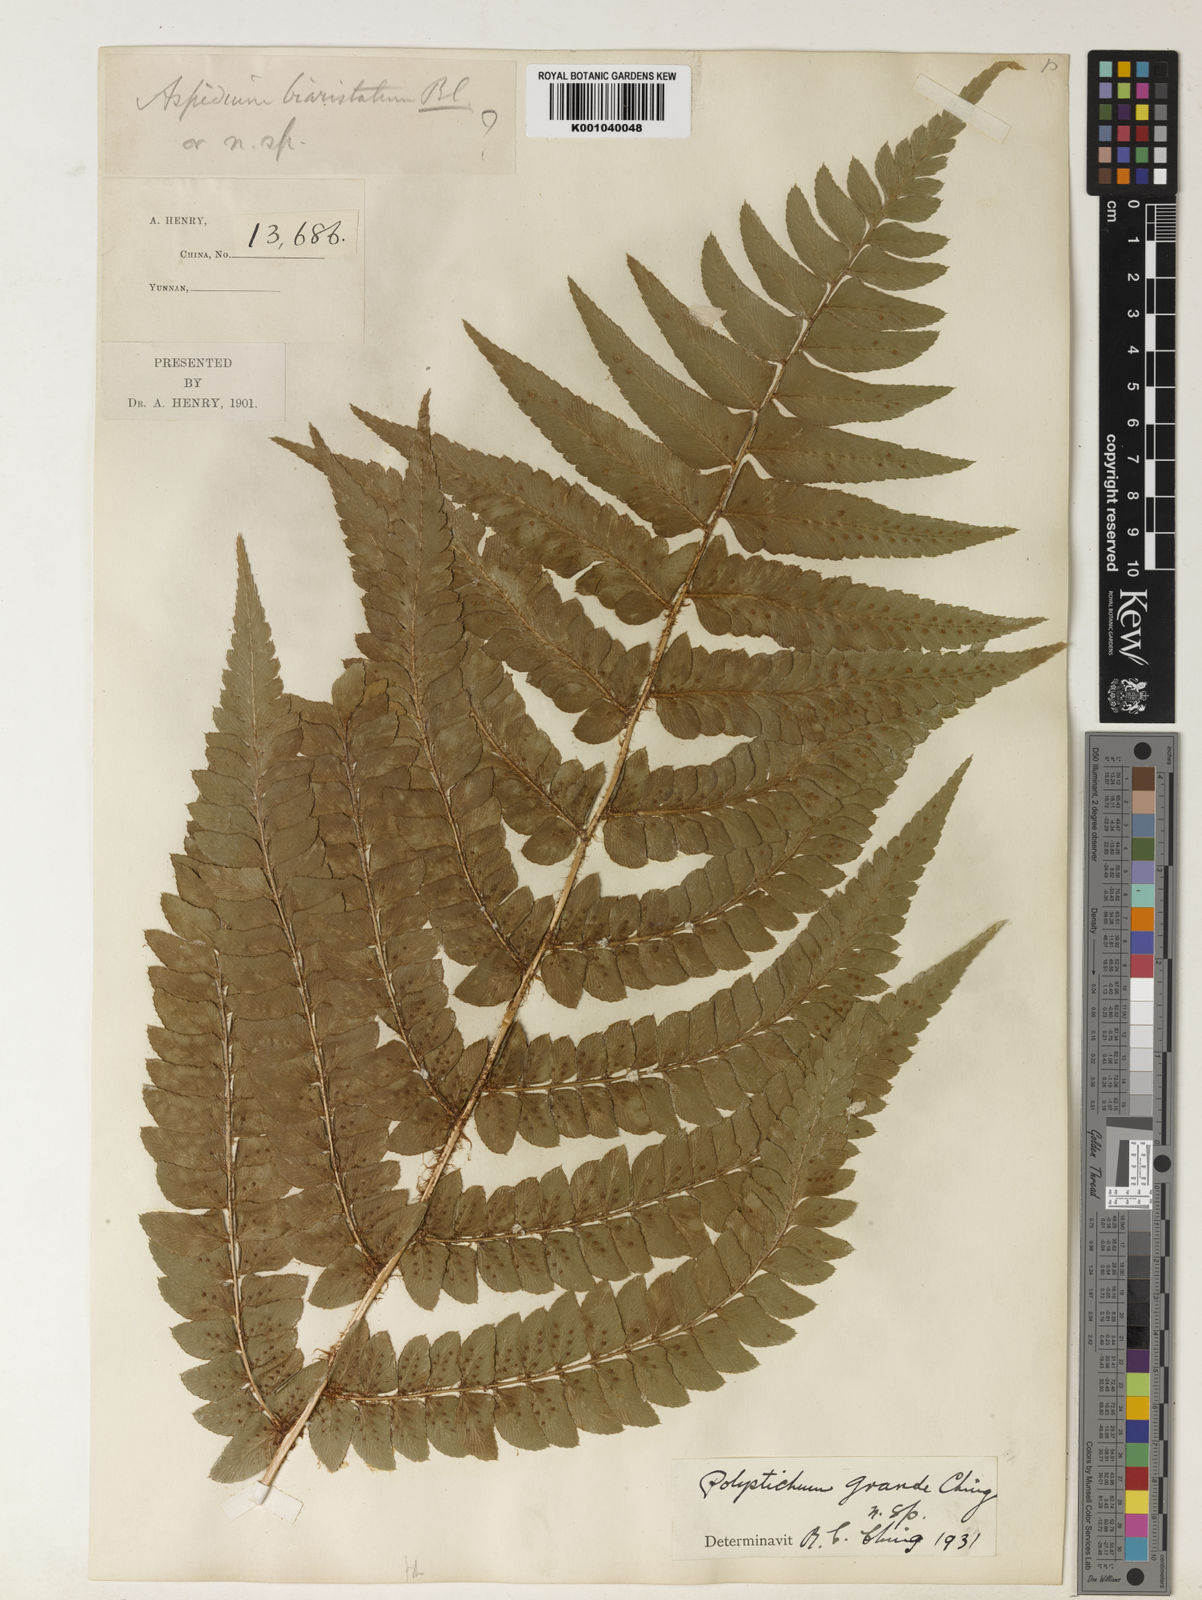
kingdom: Plantae
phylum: Tracheophyta
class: Polypodiopsida
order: Polypodiales
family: Dryopteridaceae
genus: Polystichum
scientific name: Polystichum grandifrons
